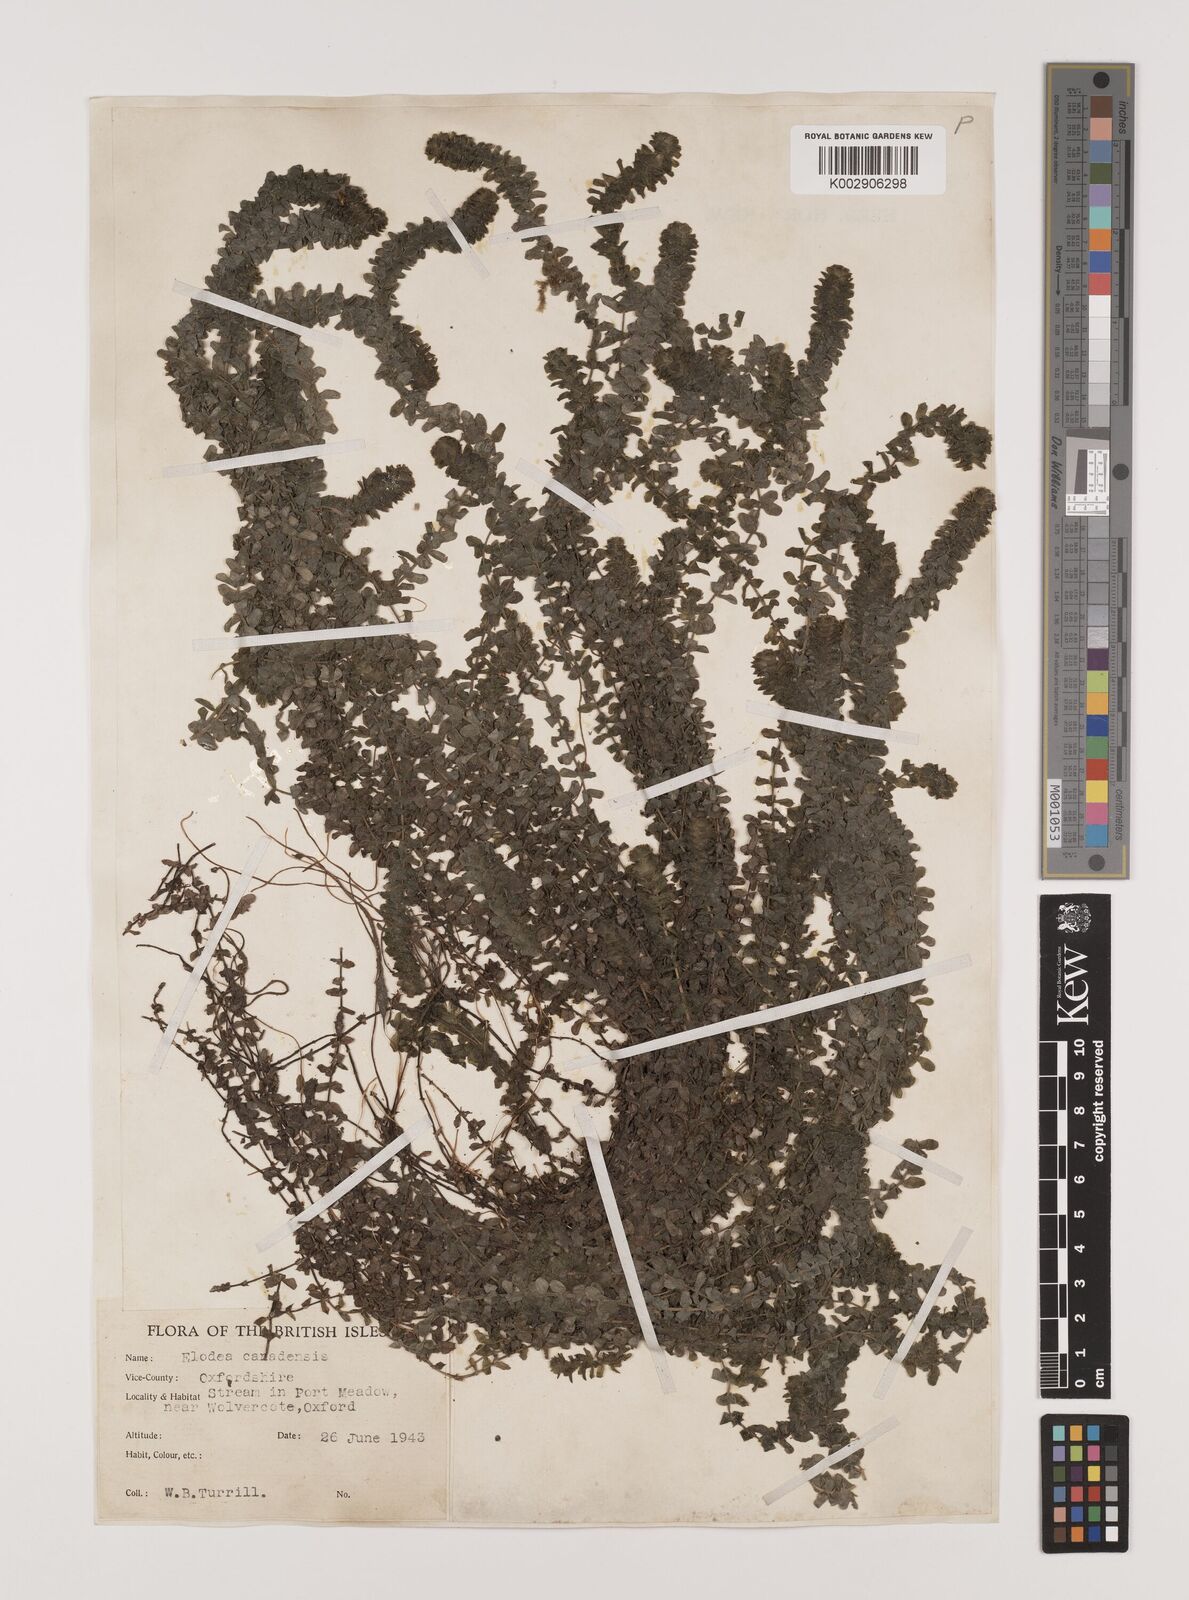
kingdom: Plantae
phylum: Tracheophyta
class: Liliopsida
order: Alismatales
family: Hydrocharitaceae
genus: Elodea
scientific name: Elodea canadensis
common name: Canadian waterweed
